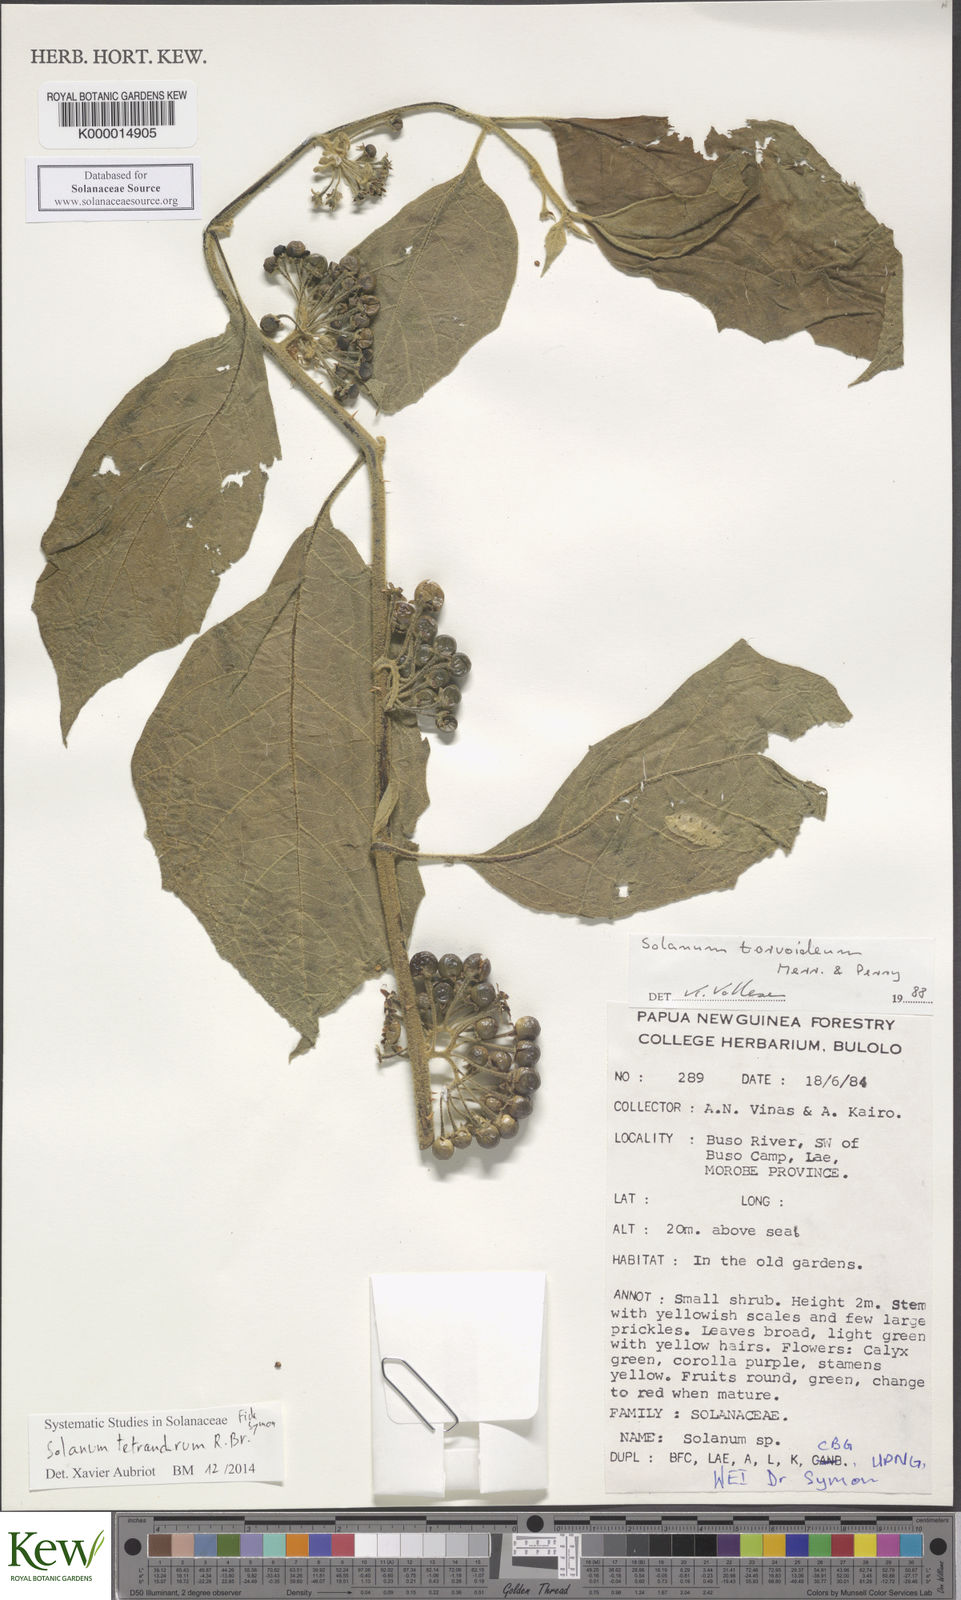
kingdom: Plantae
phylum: Tracheophyta
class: Magnoliopsida
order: Solanales
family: Solanaceae
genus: Solanum
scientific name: Solanum tetrandrum
